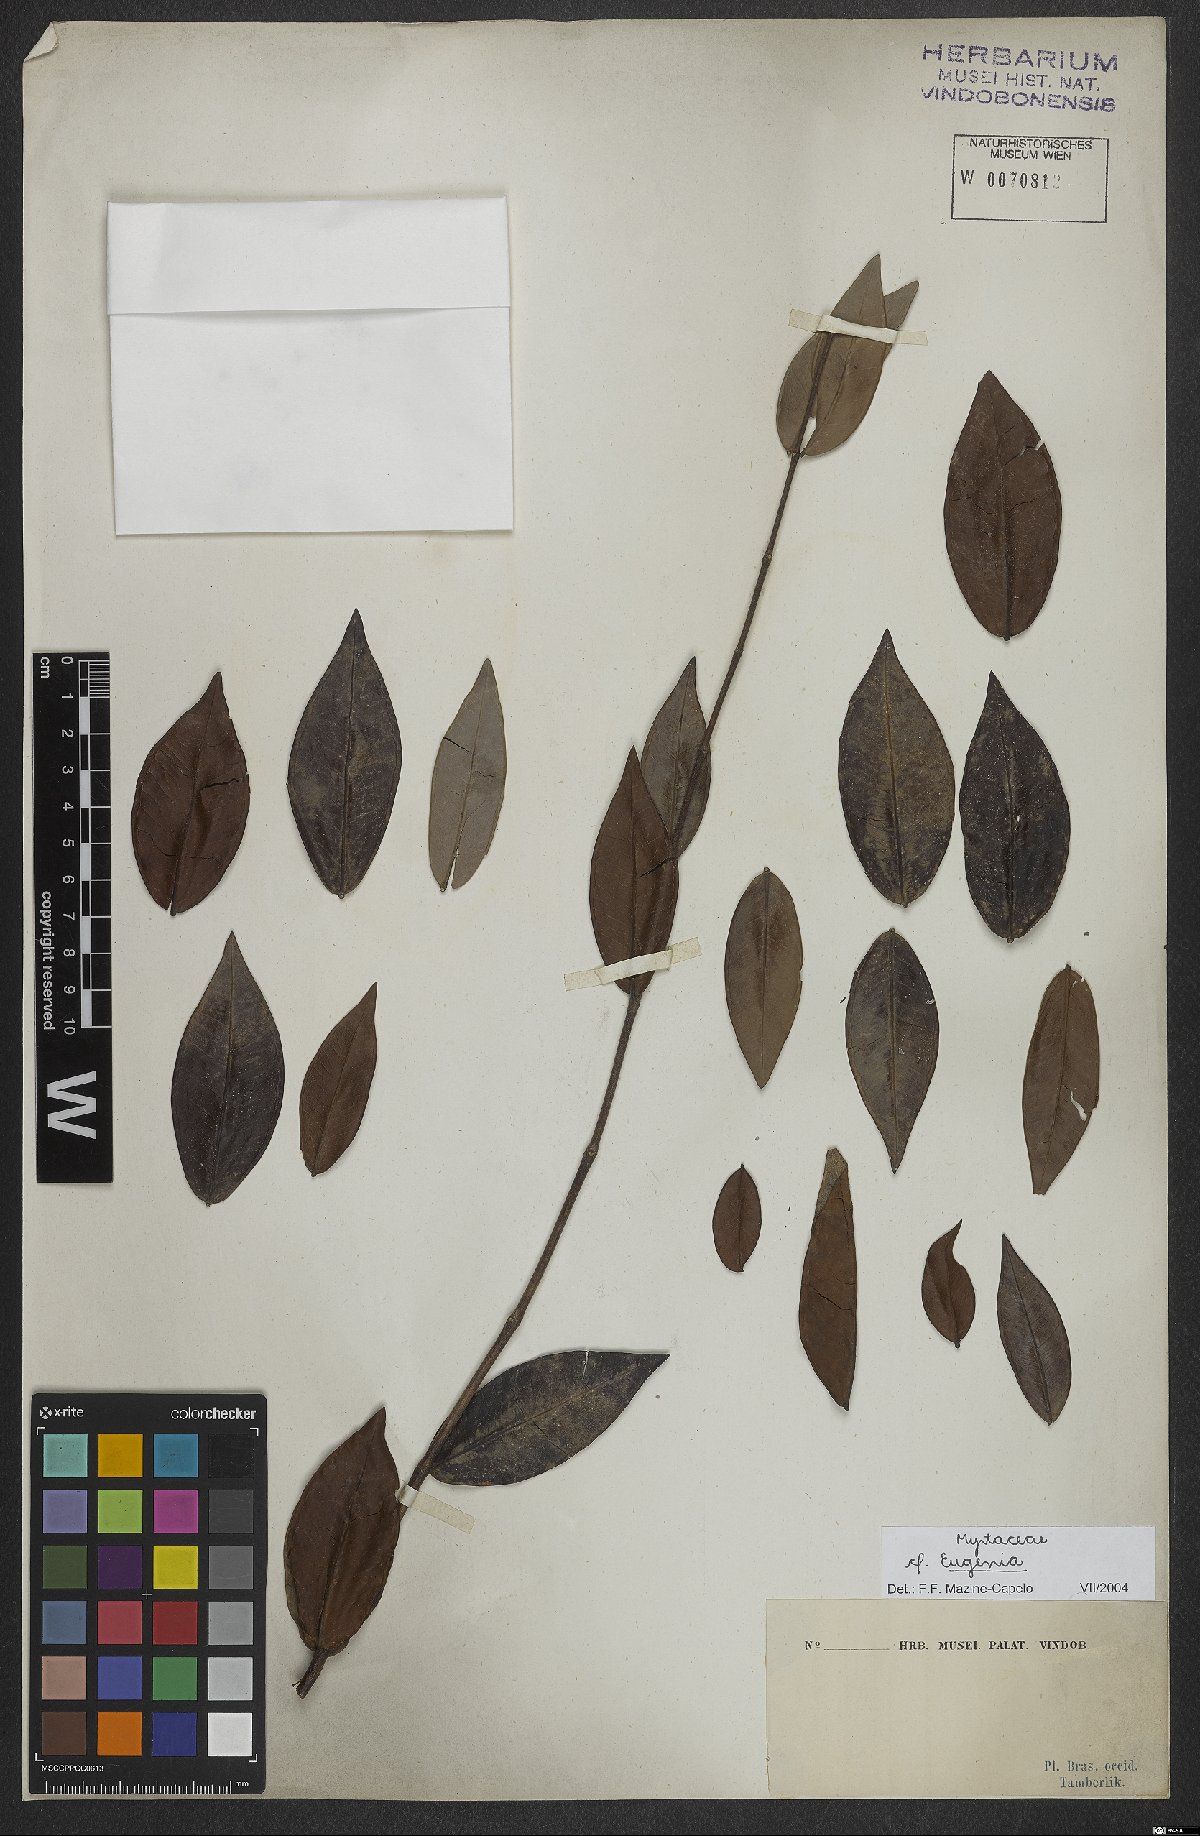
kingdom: Plantae
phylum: Tracheophyta
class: Magnoliopsida
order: Myrtales
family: Myrtaceae
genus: Eugenia
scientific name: Eugenia
